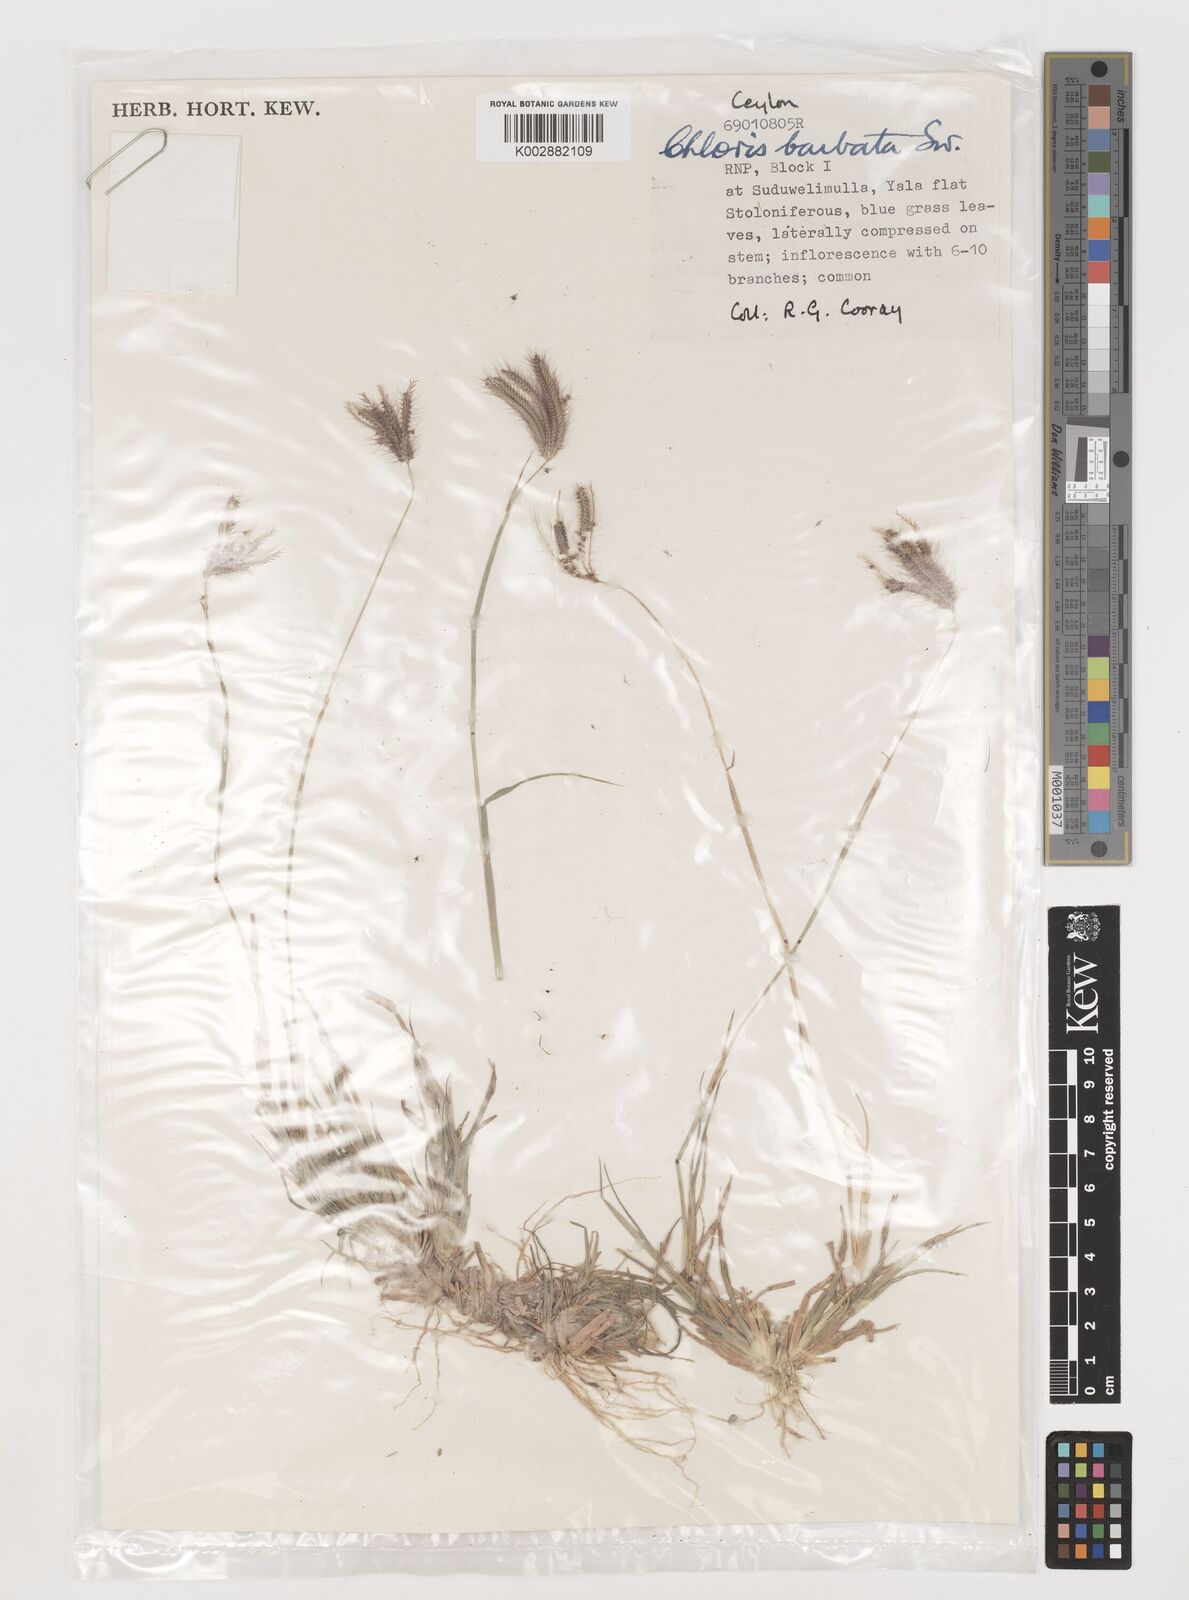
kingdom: Plantae
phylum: Tracheophyta
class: Liliopsida
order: Poales
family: Poaceae
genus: Chloris
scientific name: Chloris barbata
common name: Swollen fingergrass
